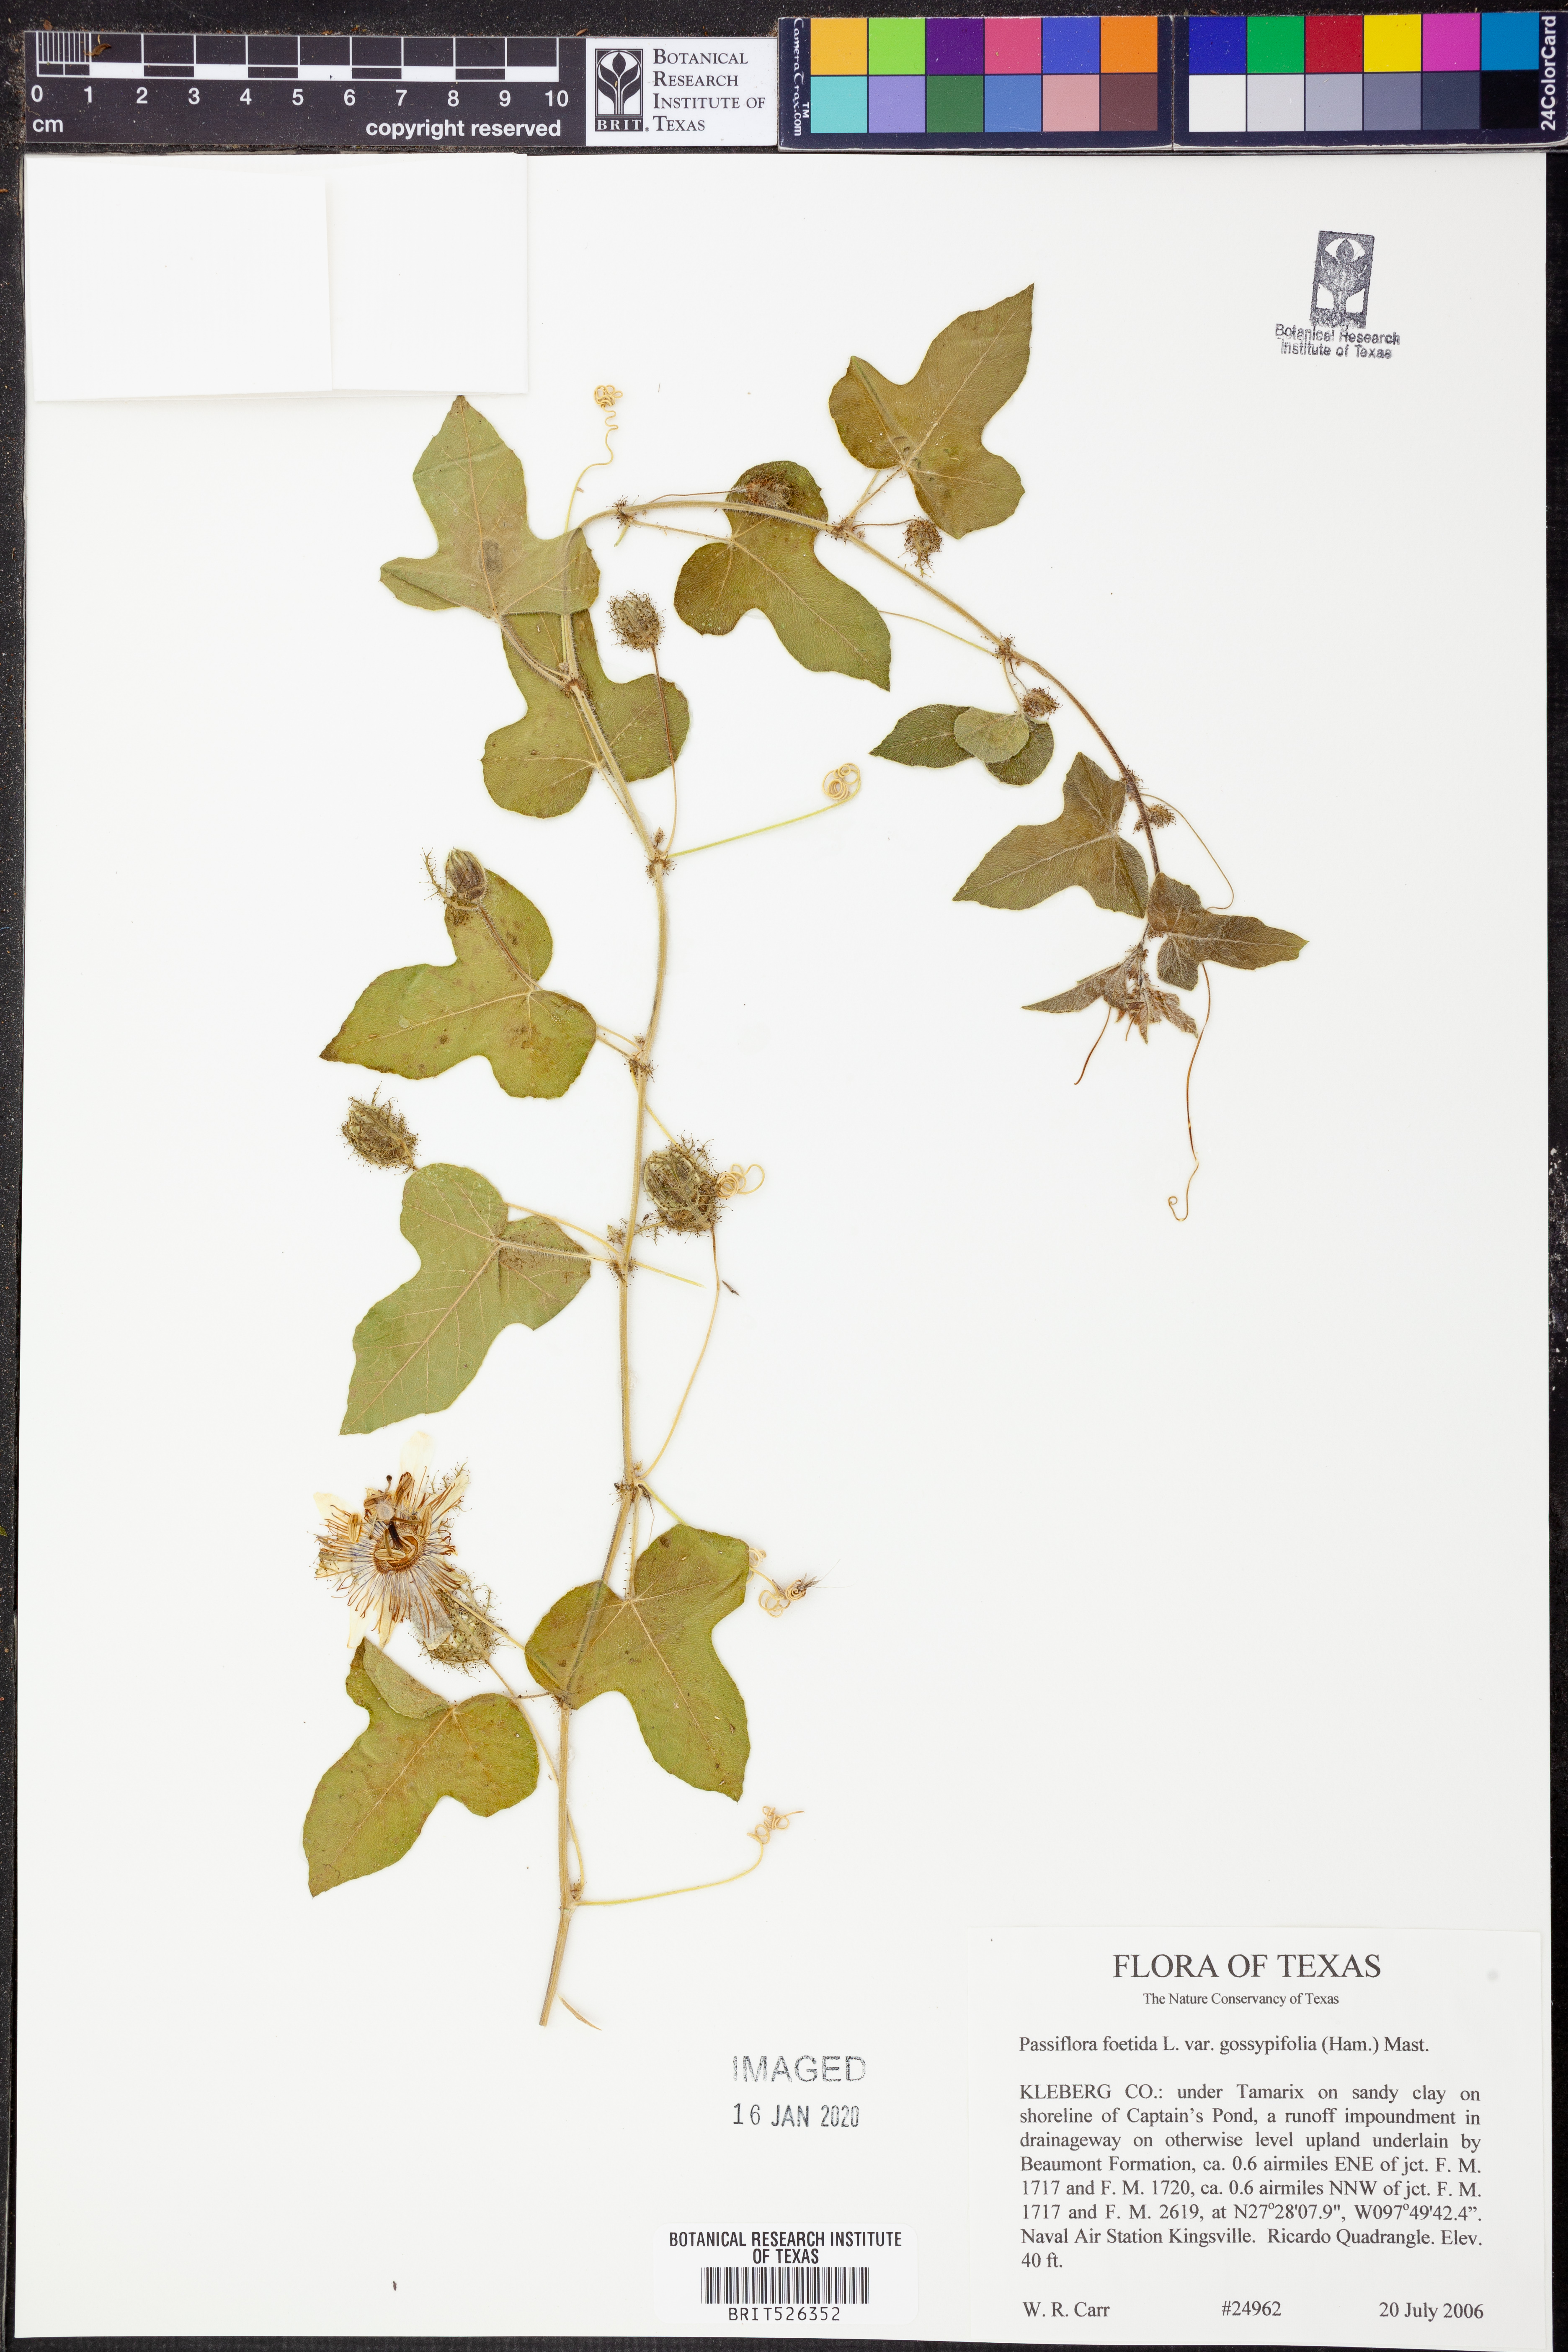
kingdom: Plantae
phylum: Tracheophyta
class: Magnoliopsida
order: Malpighiales
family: Passifloraceae
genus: Passiflora
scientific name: Passiflora foetida
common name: Fetid passionflower
